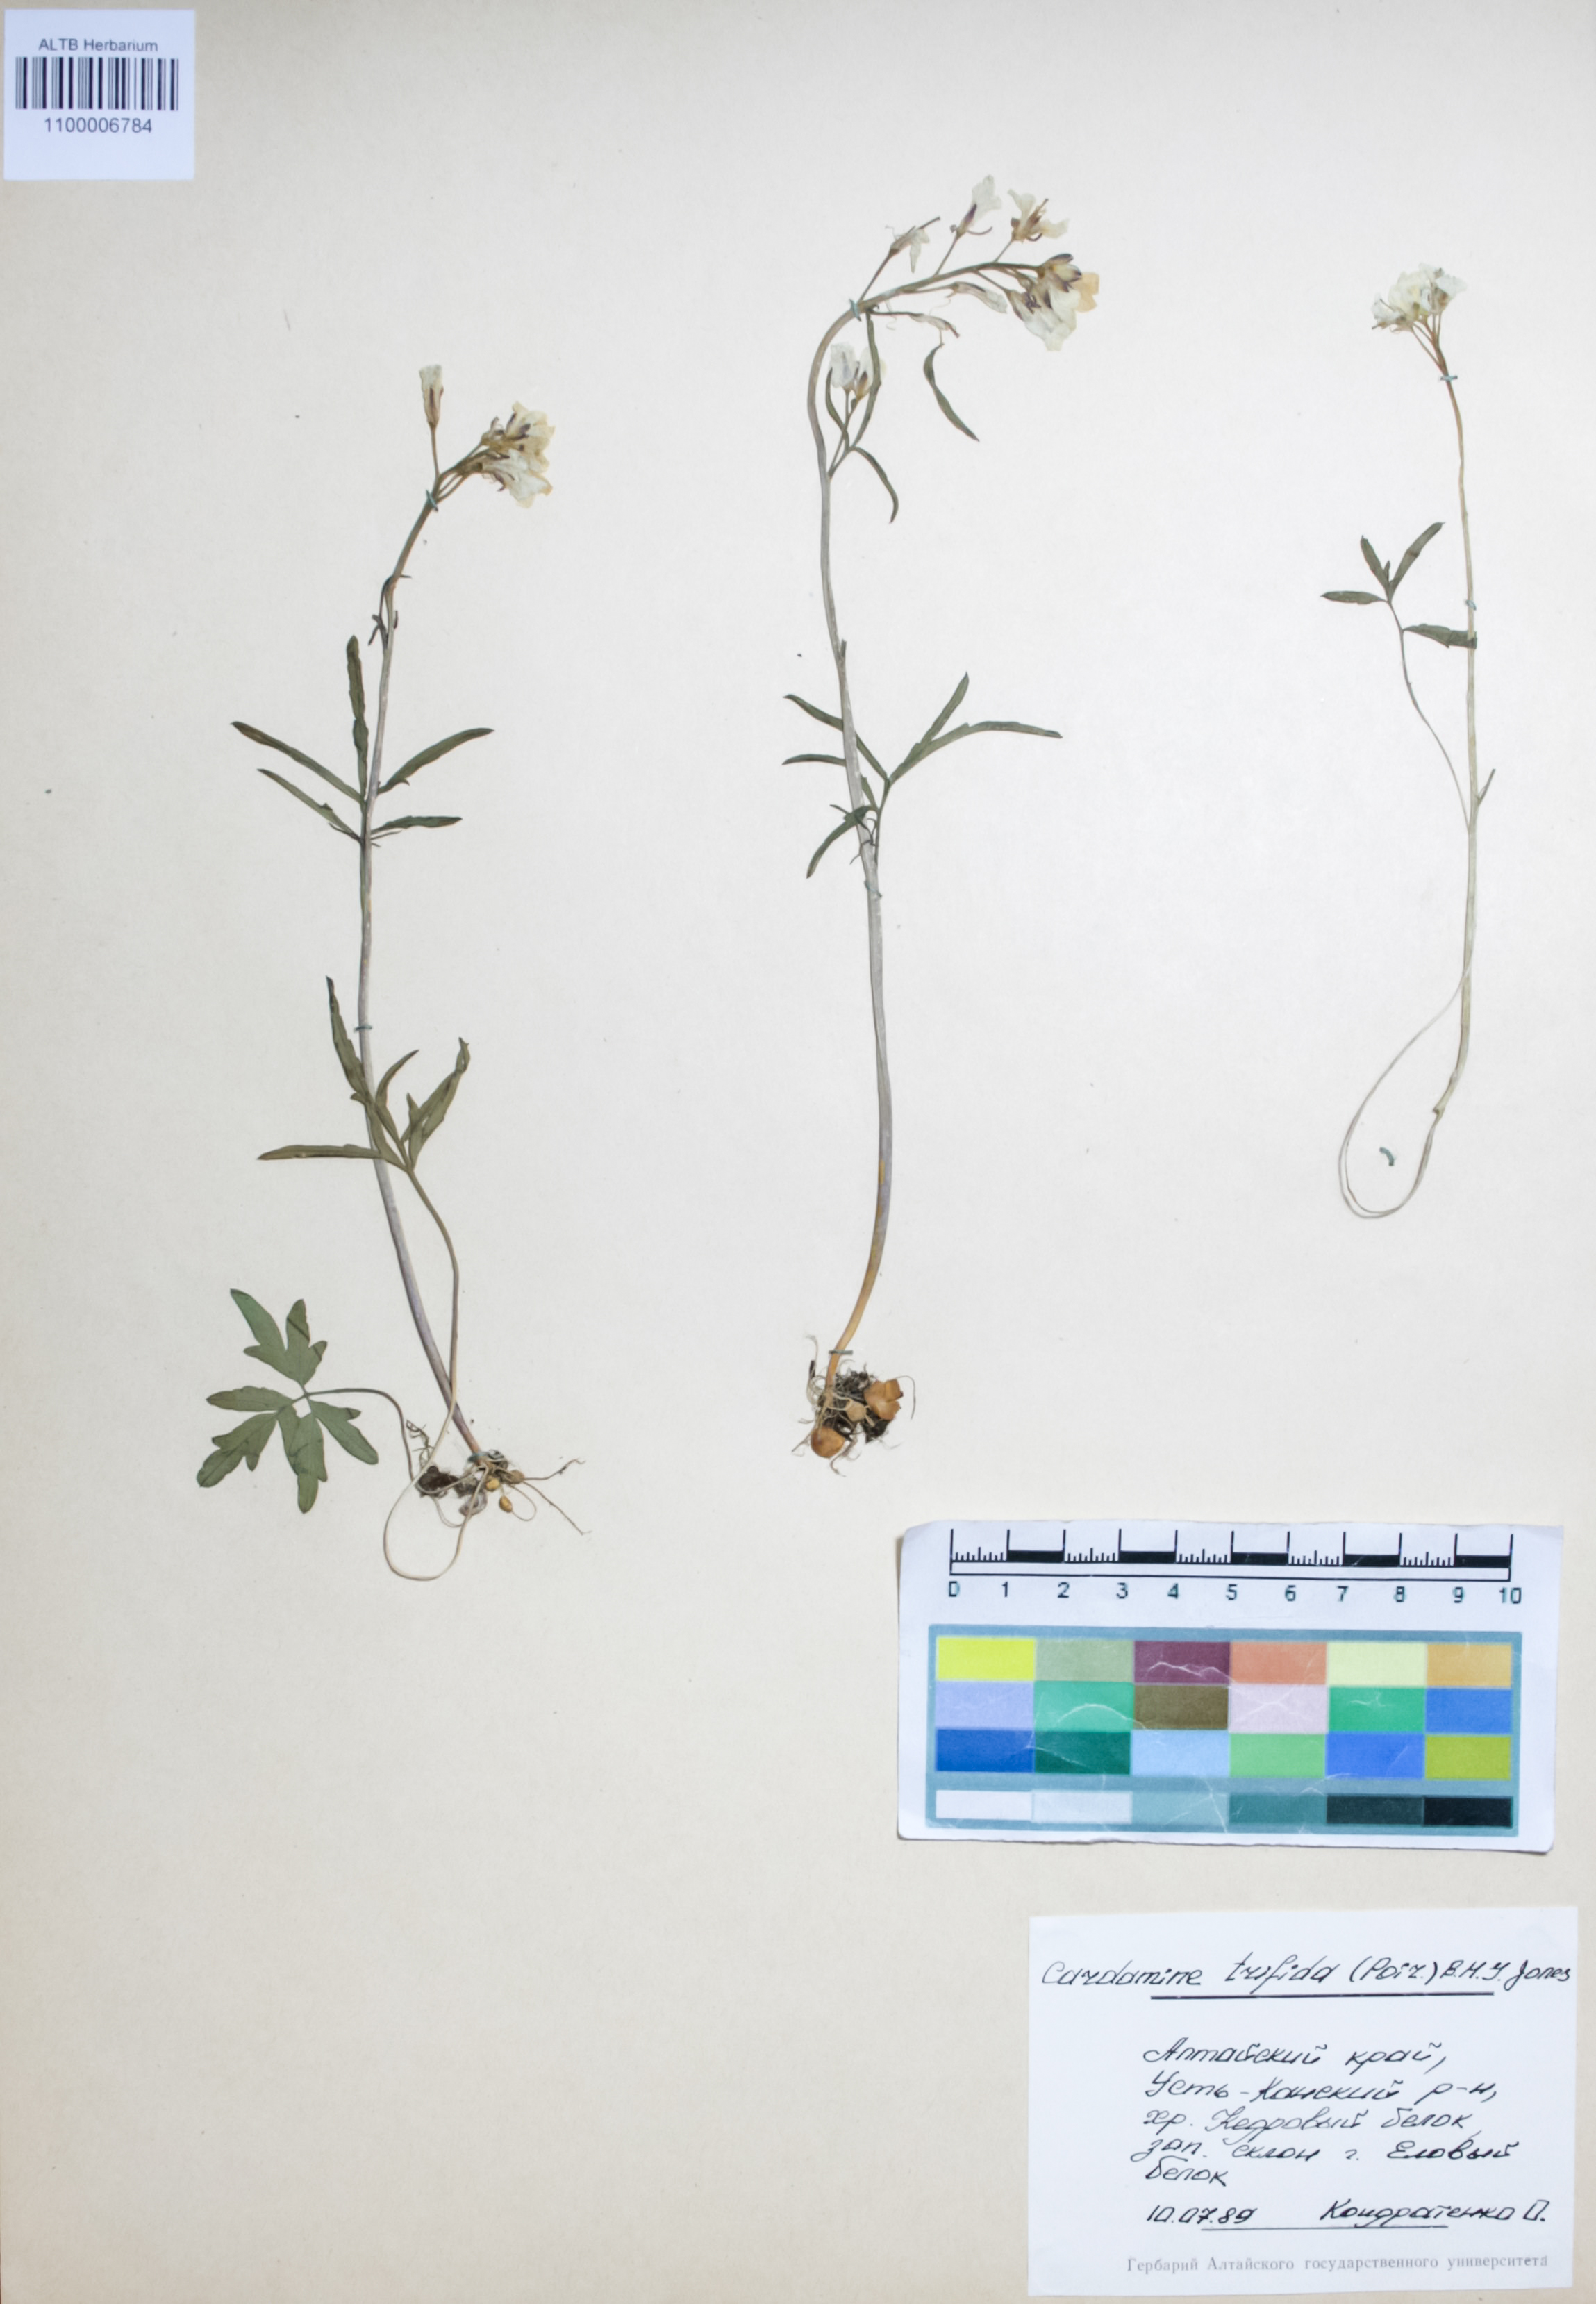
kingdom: Plantae
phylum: Tracheophyta
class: Magnoliopsida
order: Brassicales
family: Brassicaceae
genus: Cardamine
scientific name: Cardamine trifida
